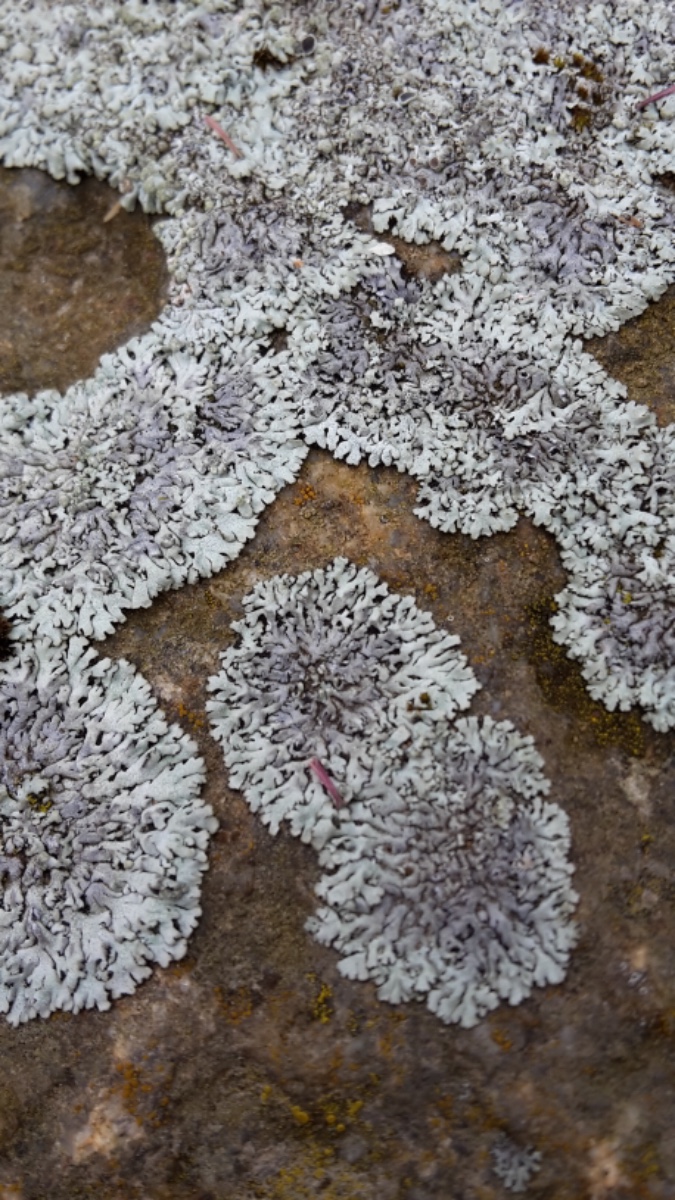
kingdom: Fungi
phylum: Ascomycota
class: Lecanoromycetes
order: Caliciales
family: Physciaceae
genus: Physcia
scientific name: Physcia caesia
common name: blågrå rosetlav
